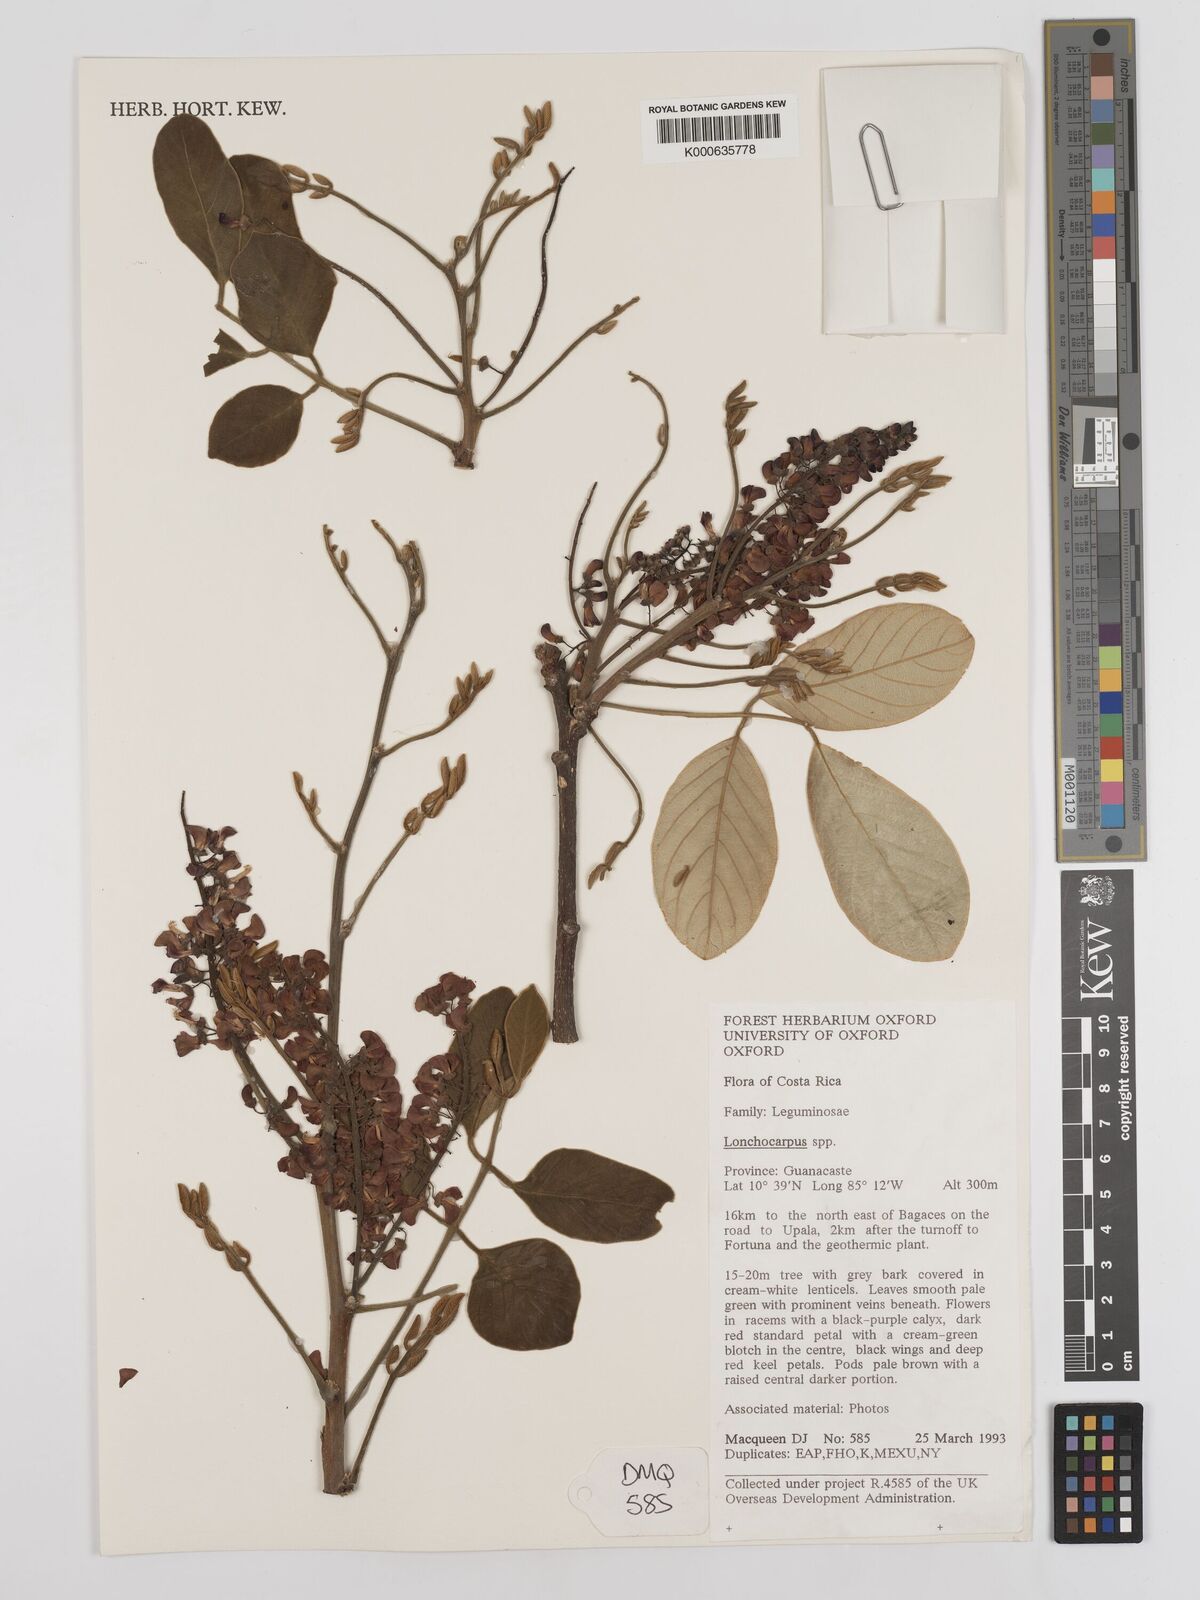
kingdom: Plantae
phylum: Tracheophyta
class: Magnoliopsida
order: Fabales
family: Fabaceae
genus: Lonchocarpus
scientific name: Lonchocarpus
